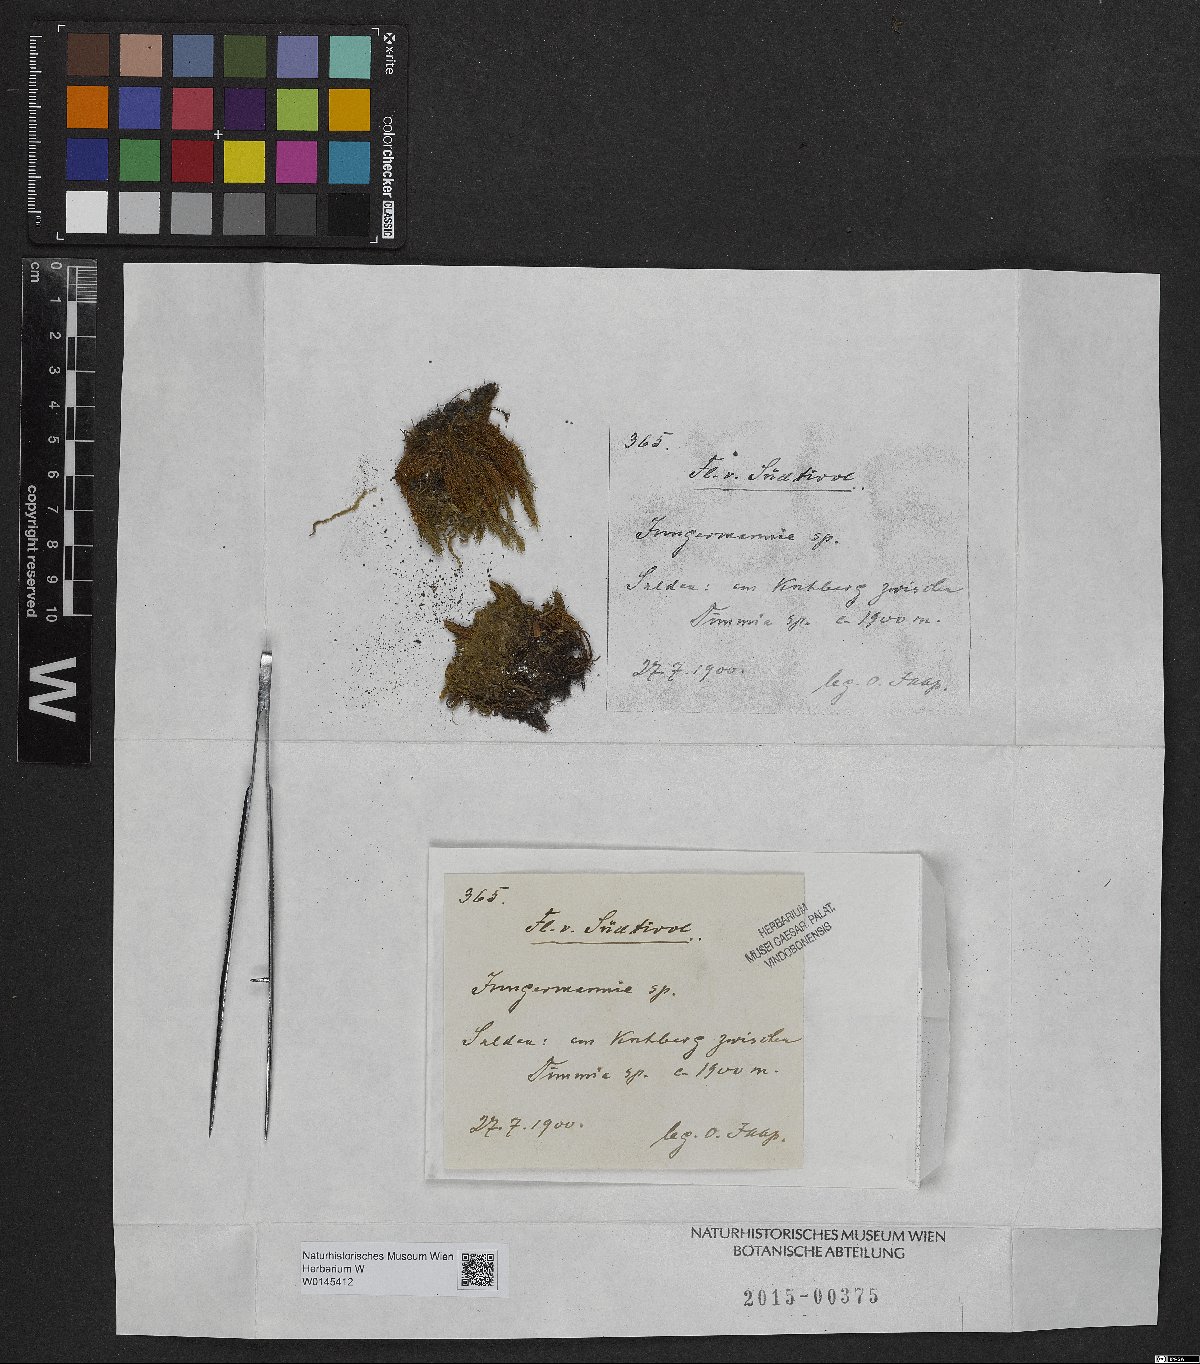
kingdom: Plantae
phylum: Marchantiophyta
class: Jungermanniopsida
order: Jungermanniales
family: Jungermanniaceae
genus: Jungermannia
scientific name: Jungermannia
